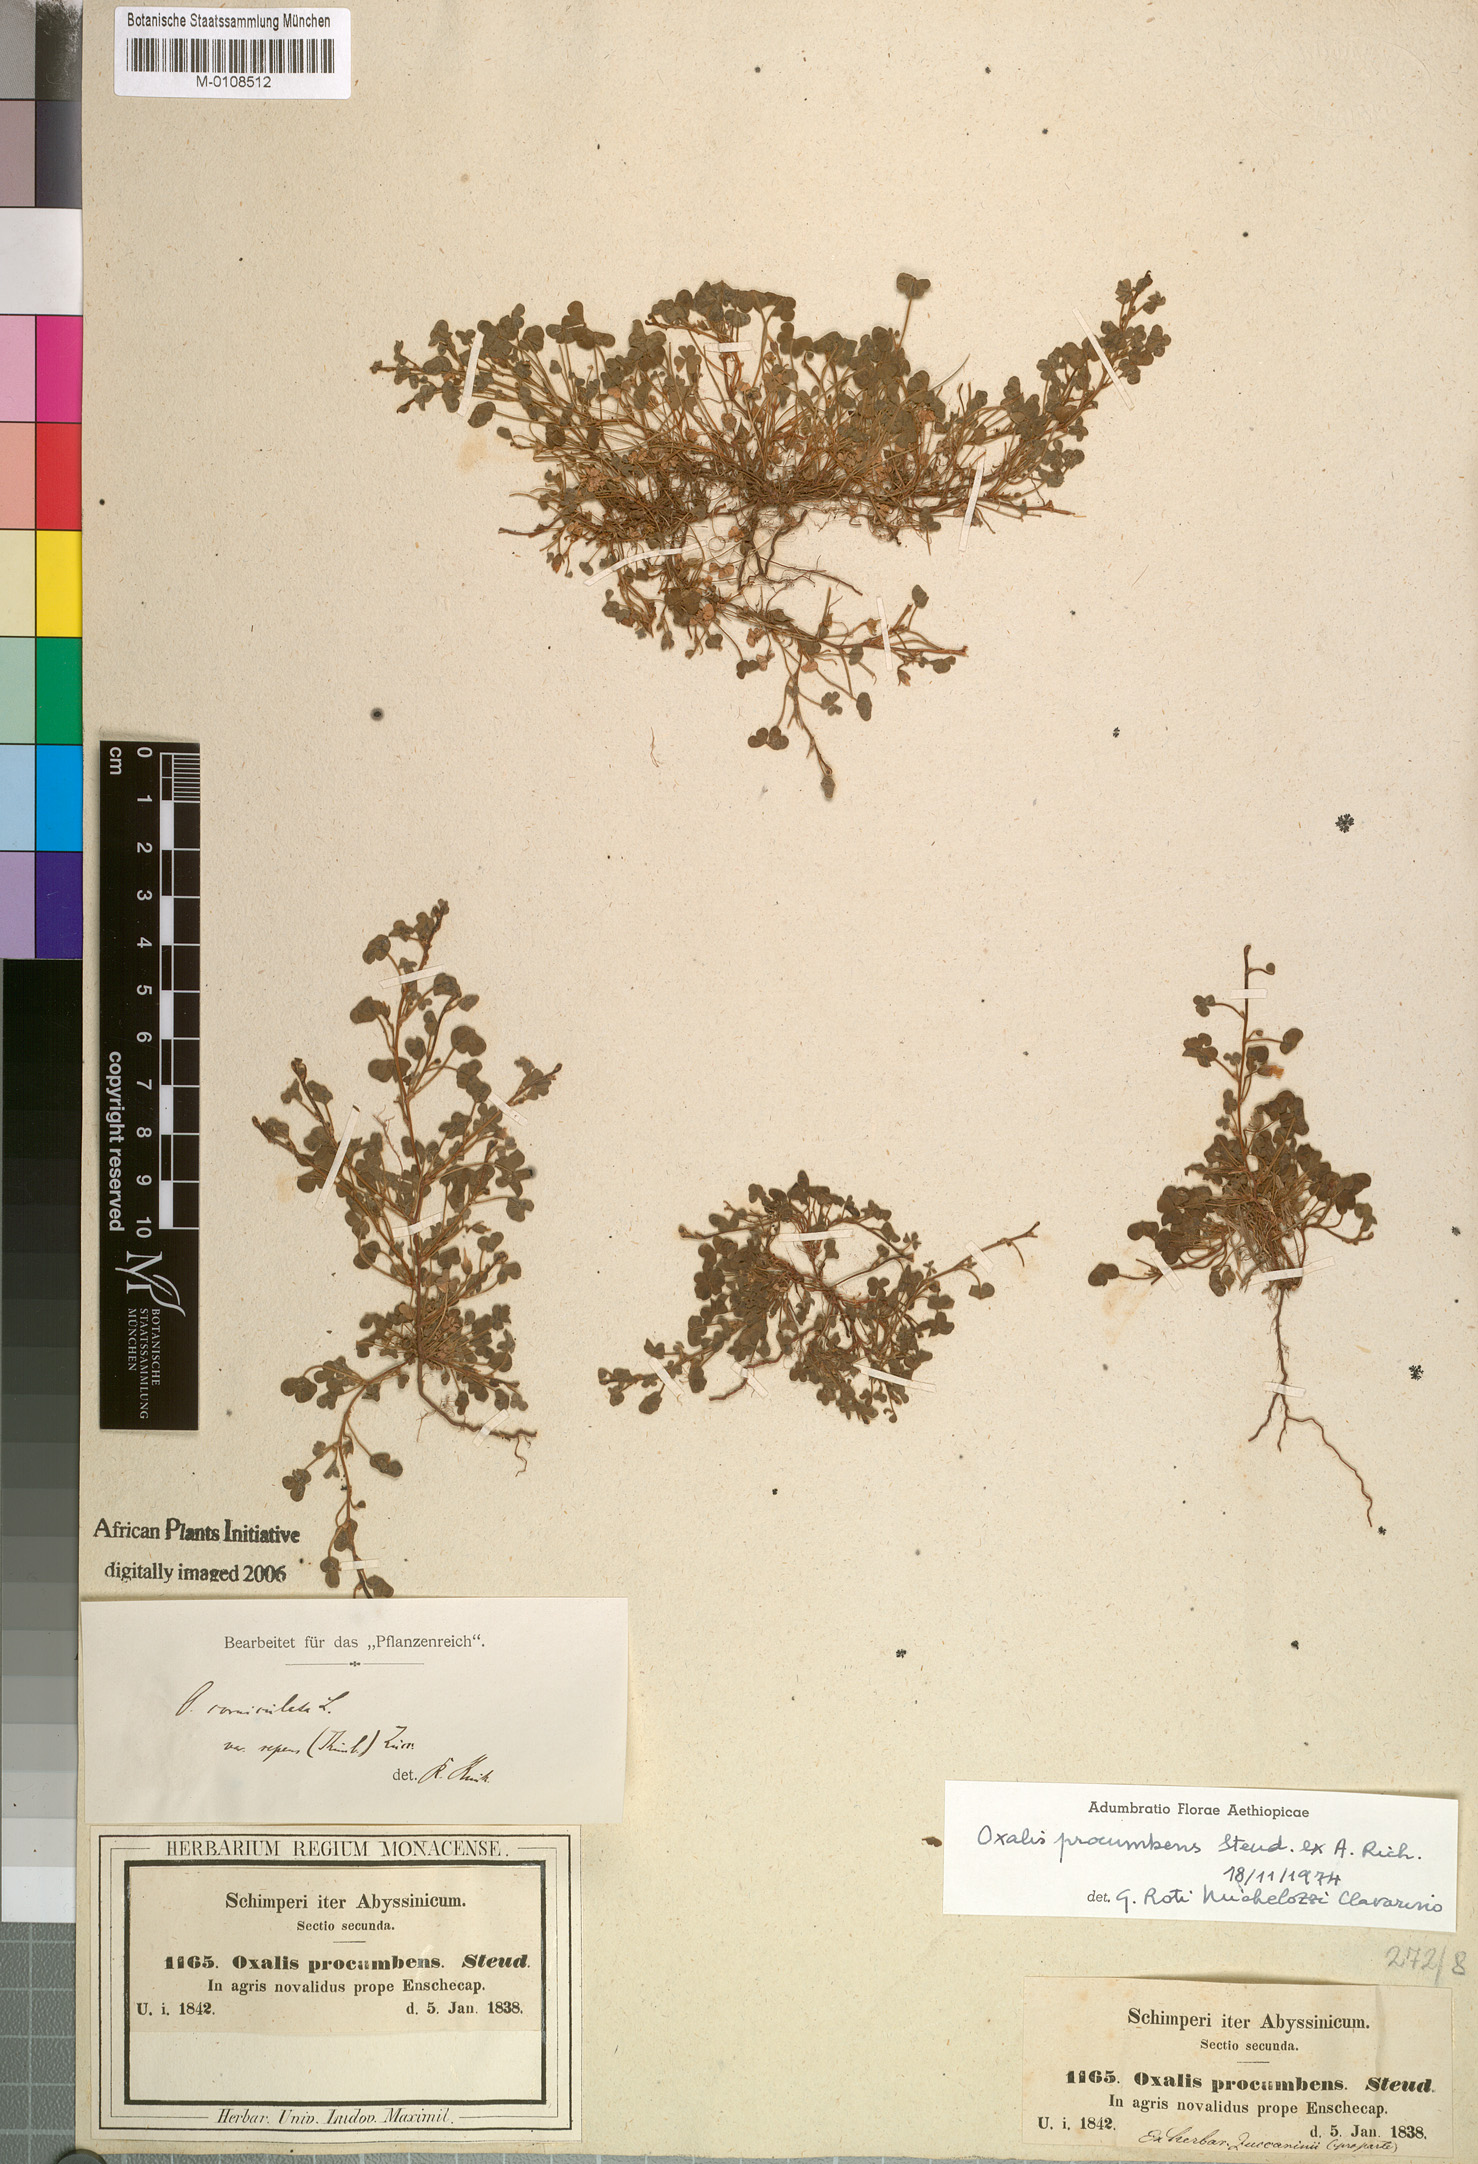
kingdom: Plantae
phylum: Tracheophyta
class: Magnoliopsida
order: Oxalidales
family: Oxalidaceae
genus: Oxalis
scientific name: Oxalis corniculata
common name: Procumbent yellow-sorrel
